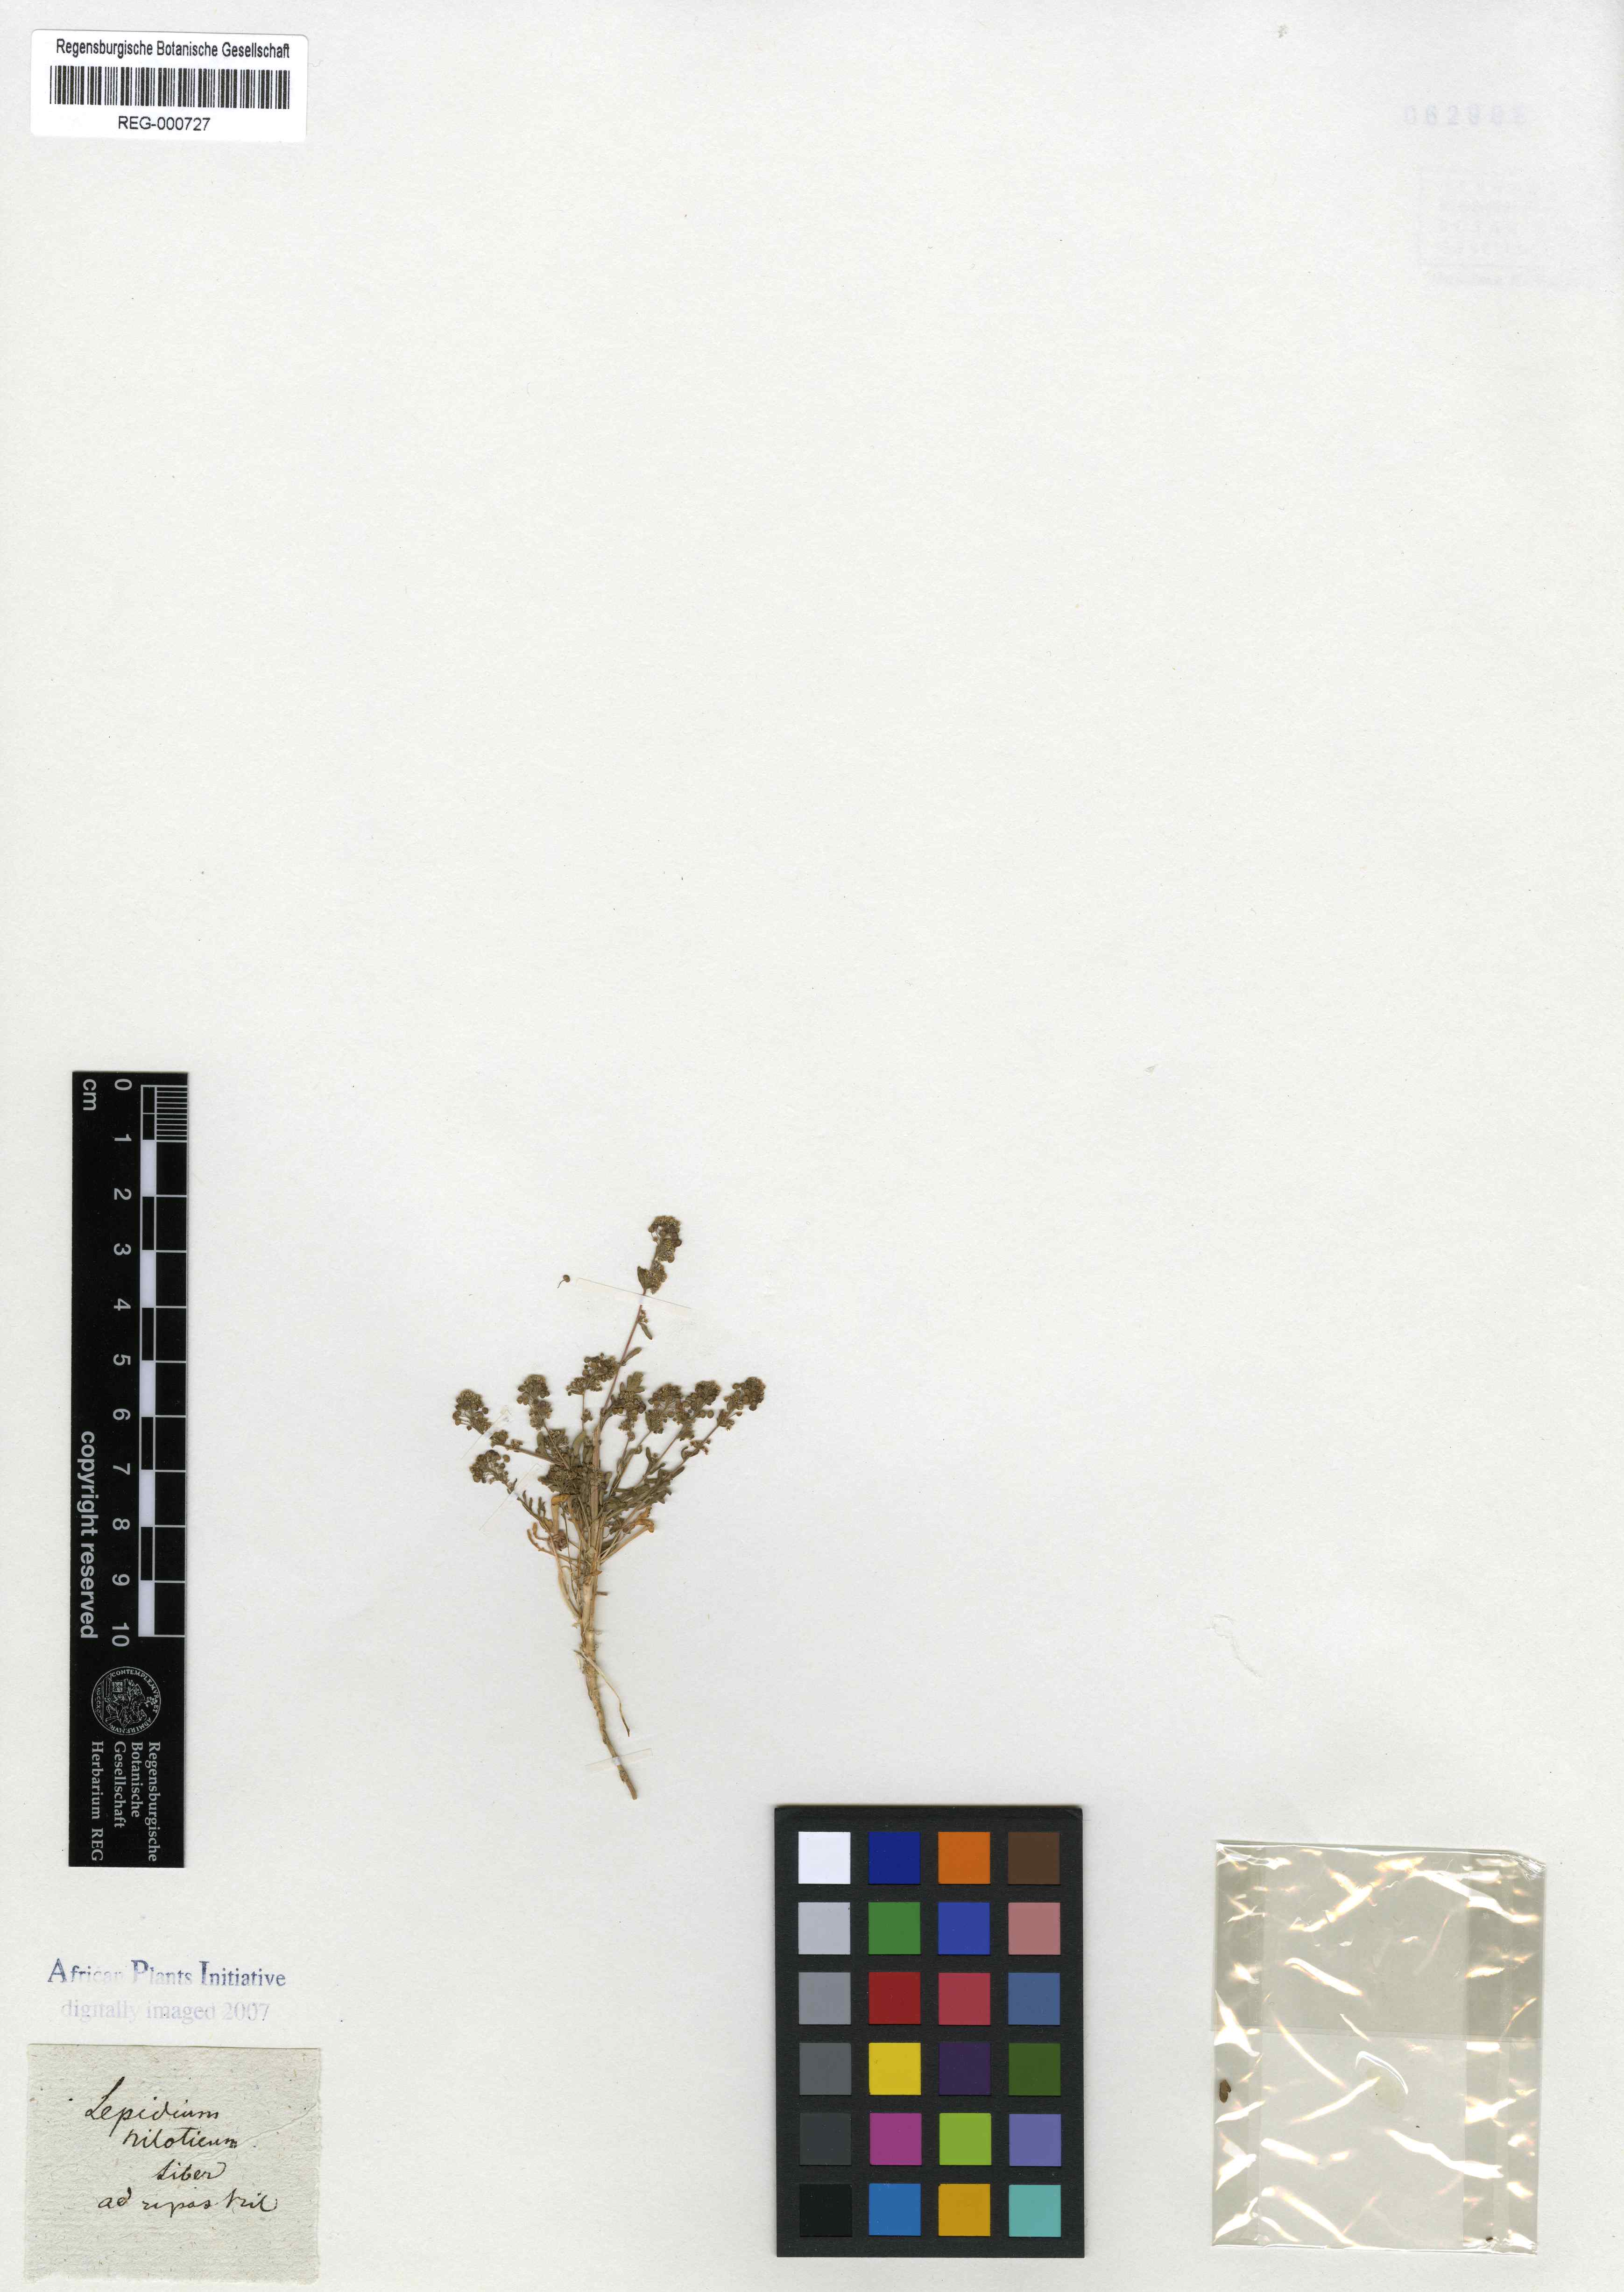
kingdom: Plantae
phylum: Tracheophyta
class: Magnoliopsida
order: Brassicales
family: Brassicaceae
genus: Lepidium
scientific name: Lepidium niloticum
